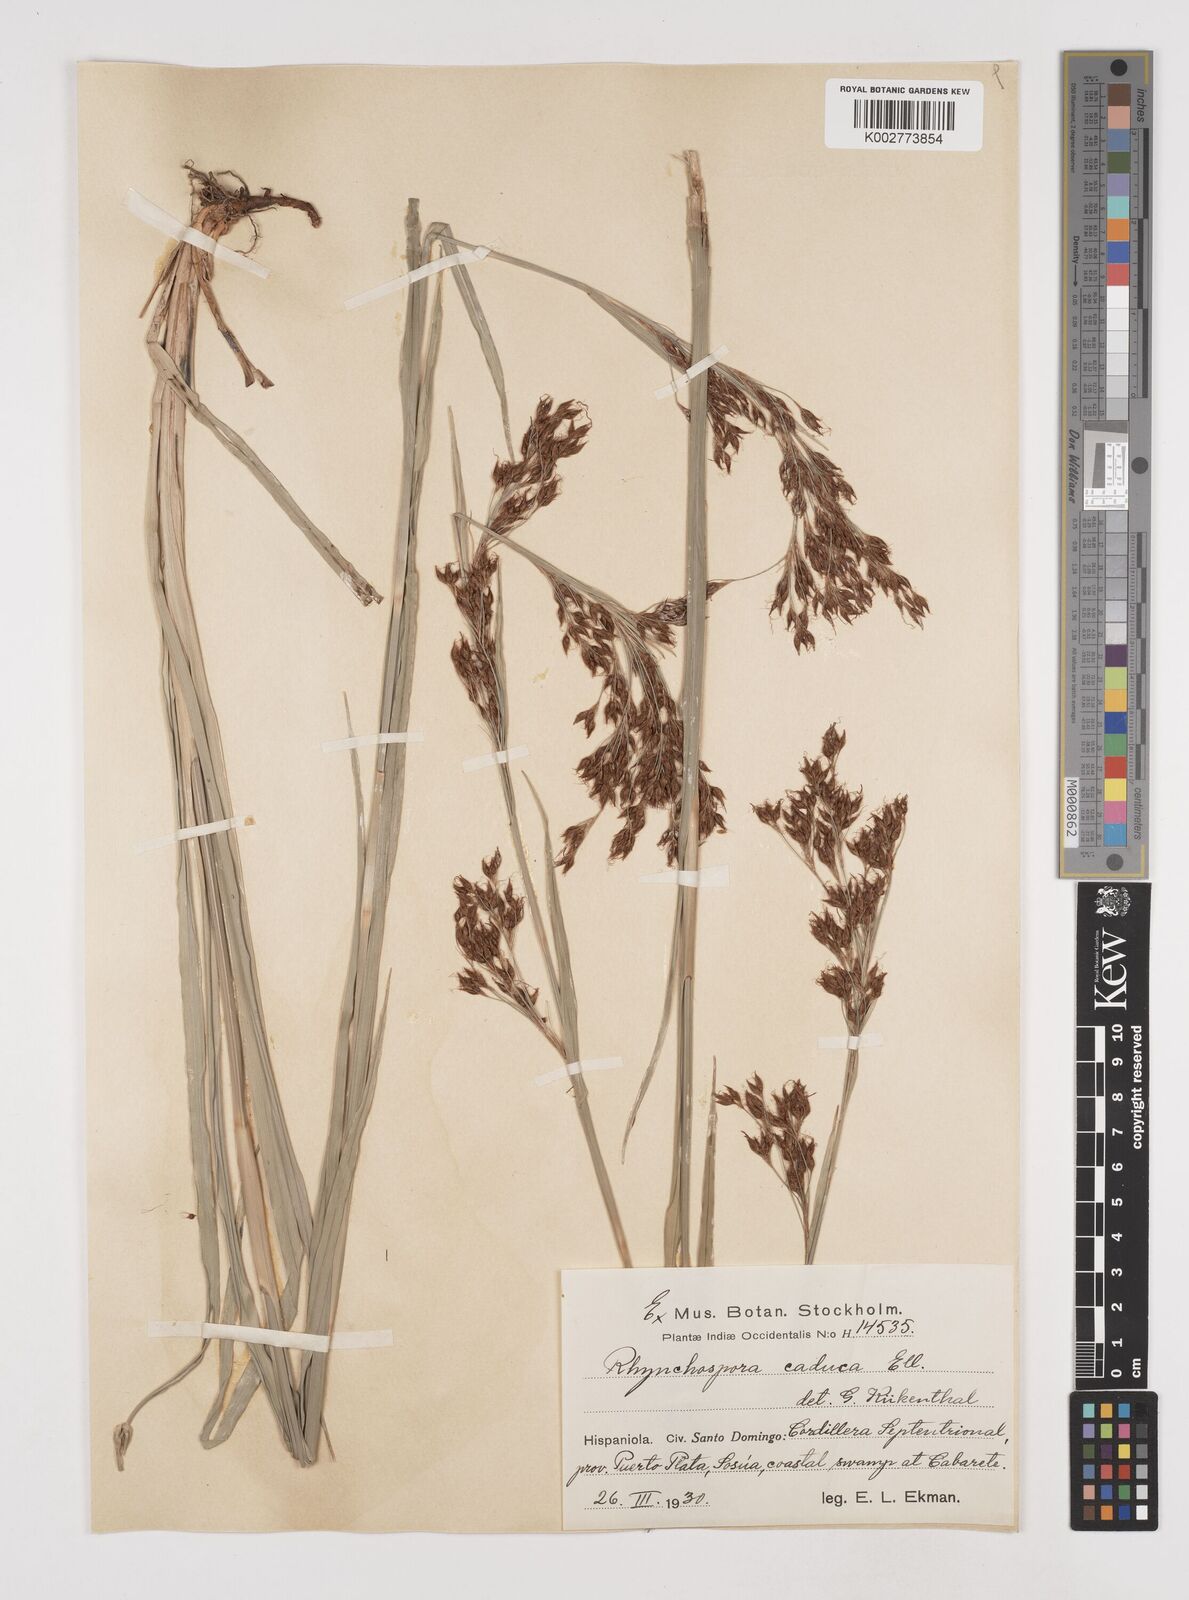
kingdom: Plantae
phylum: Tracheophyta
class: Liliopsida
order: Poales
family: Cyperaceae
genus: Rhynchospora
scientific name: Rhynchospora caduca
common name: Anglestem beaksedge
